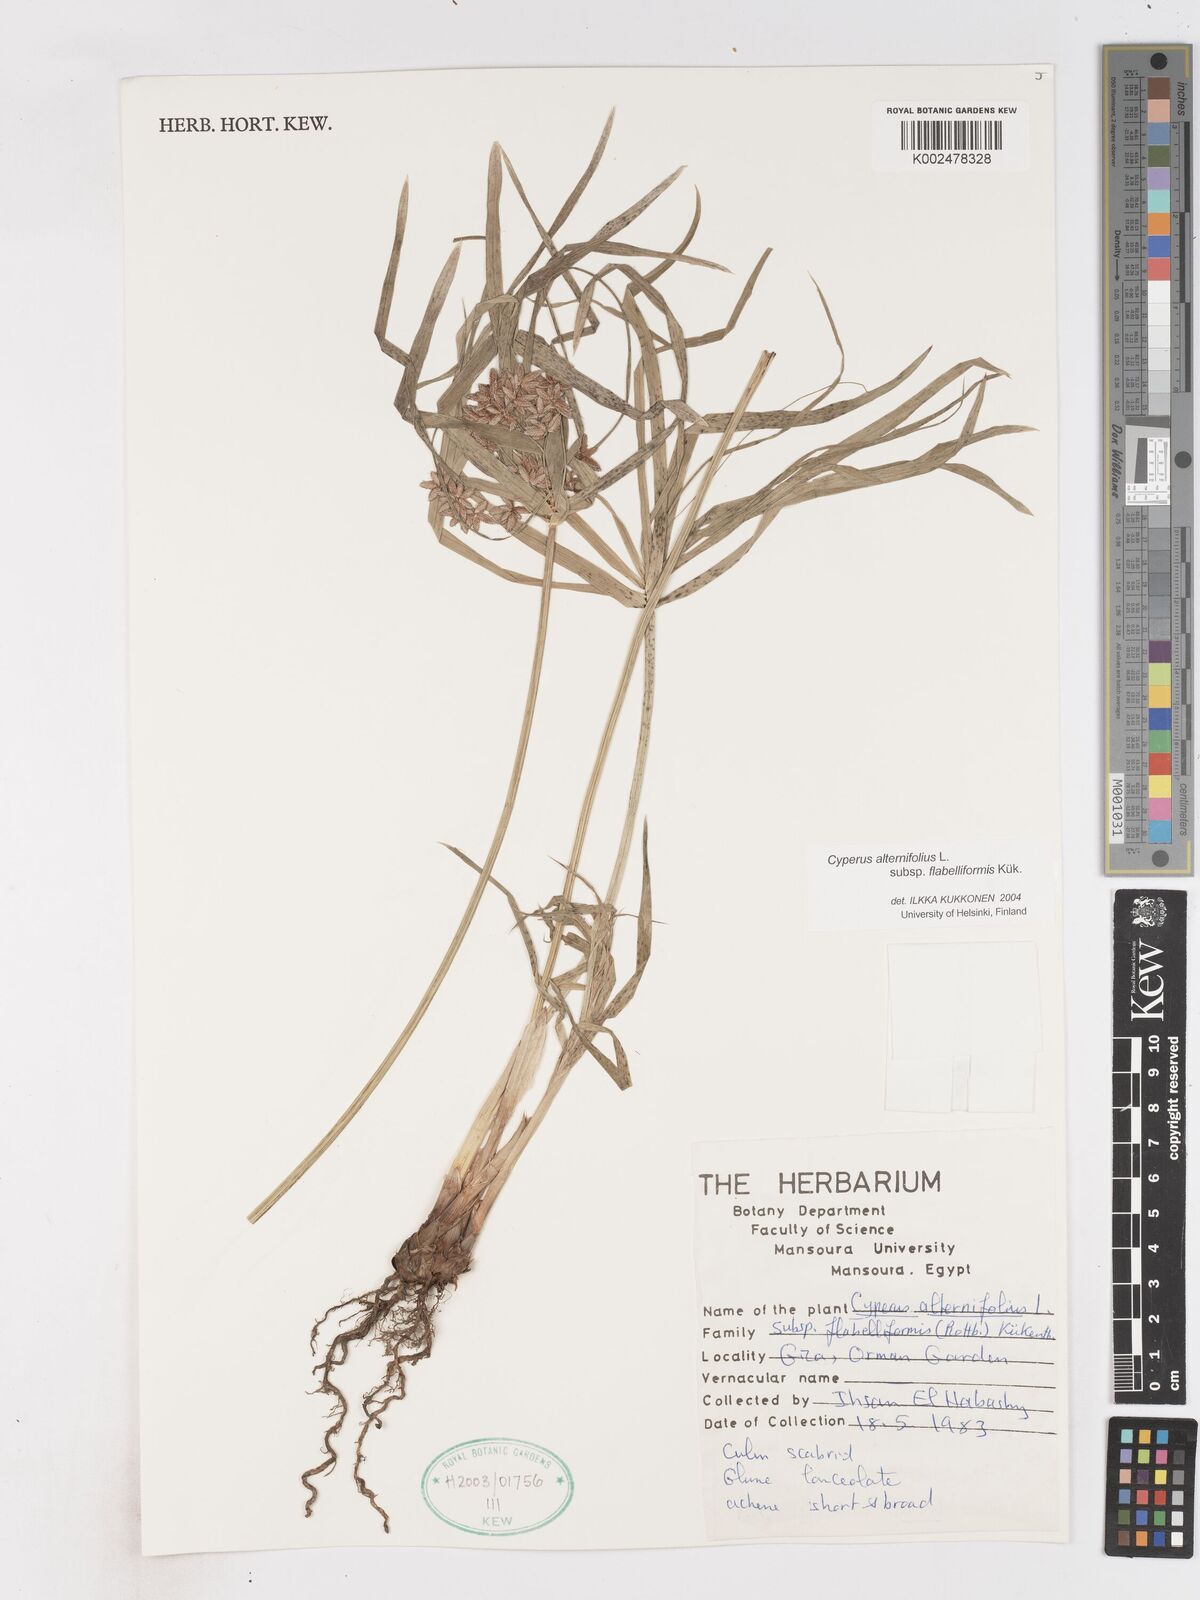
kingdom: Plantae
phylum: Tracheophyta
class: Liliopsida
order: Poales
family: Cyperaceae
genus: Cyperus
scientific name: Cyperus alternifolius
